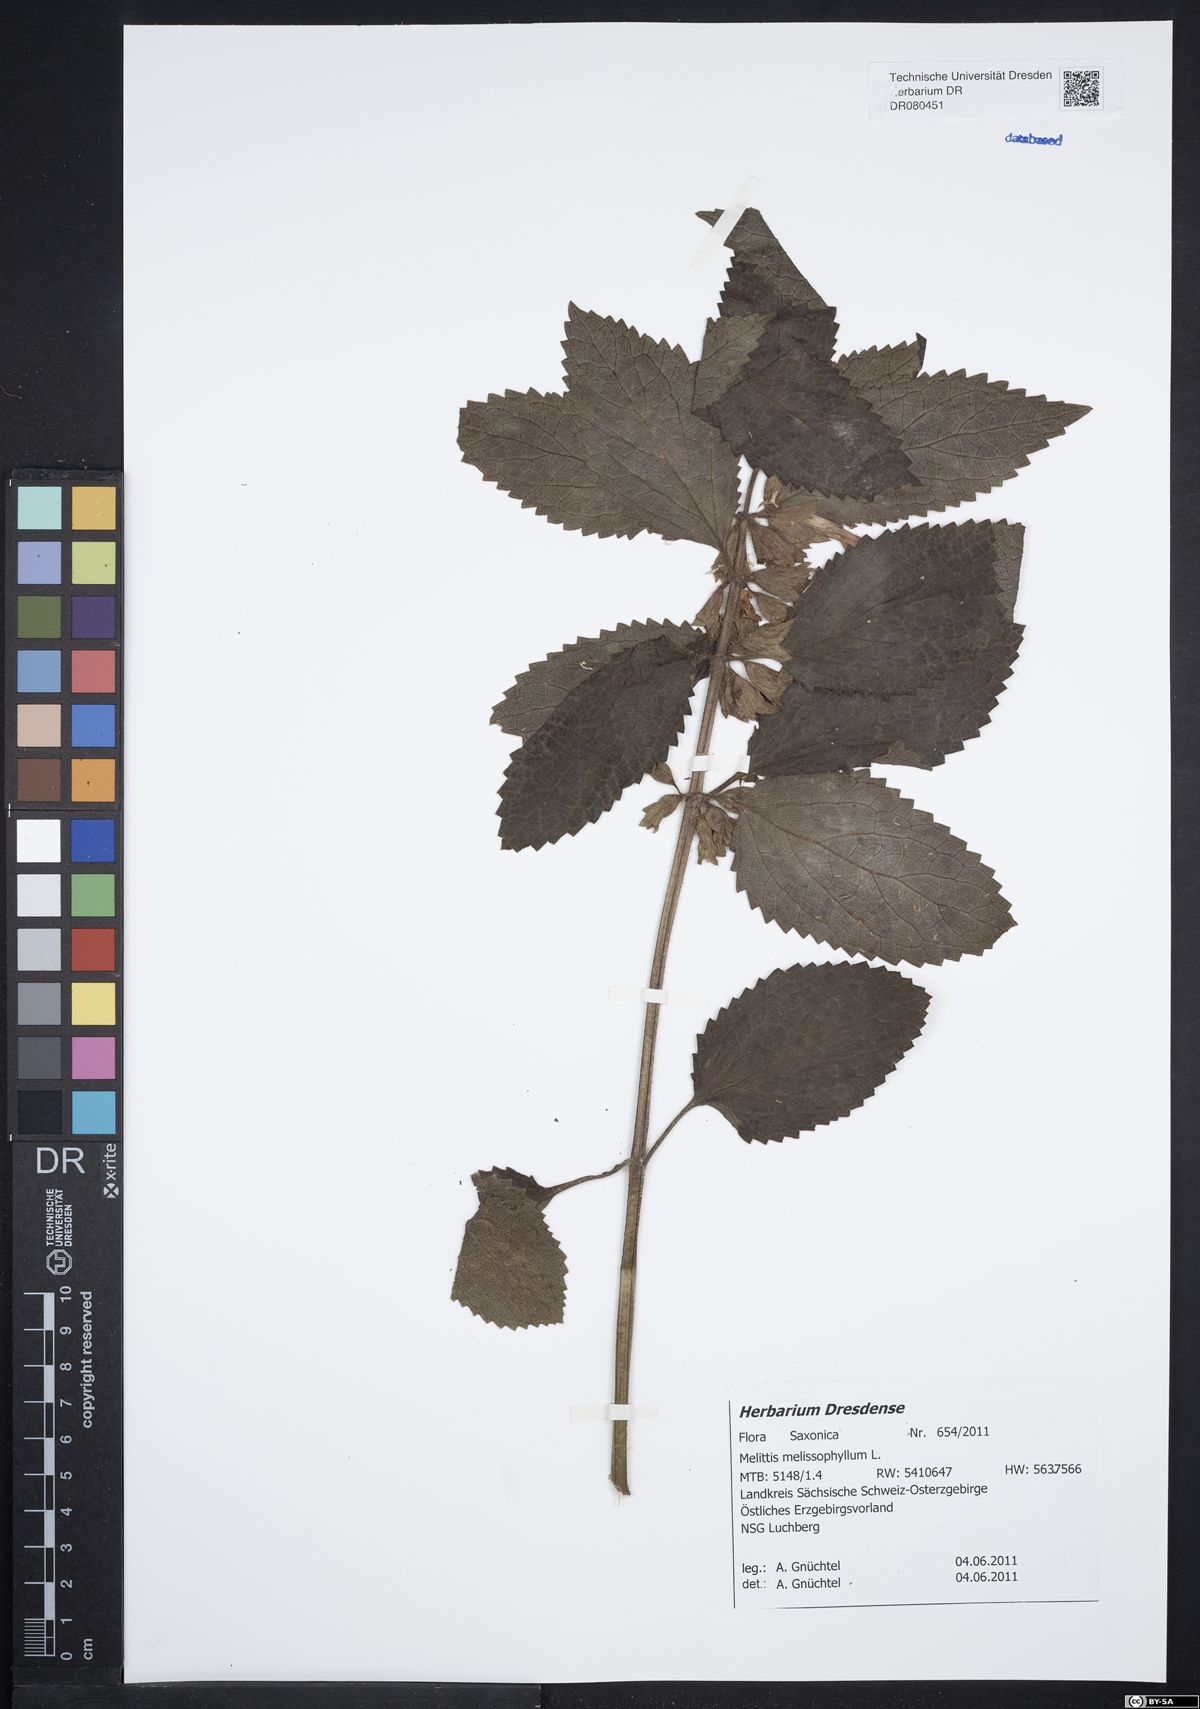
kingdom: Plantae
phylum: Tracheophyta
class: Magnoliopsida
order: Lamiales
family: Lamiaceae
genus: Melittis
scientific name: Melittis melissophyllum
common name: Bastard balm
